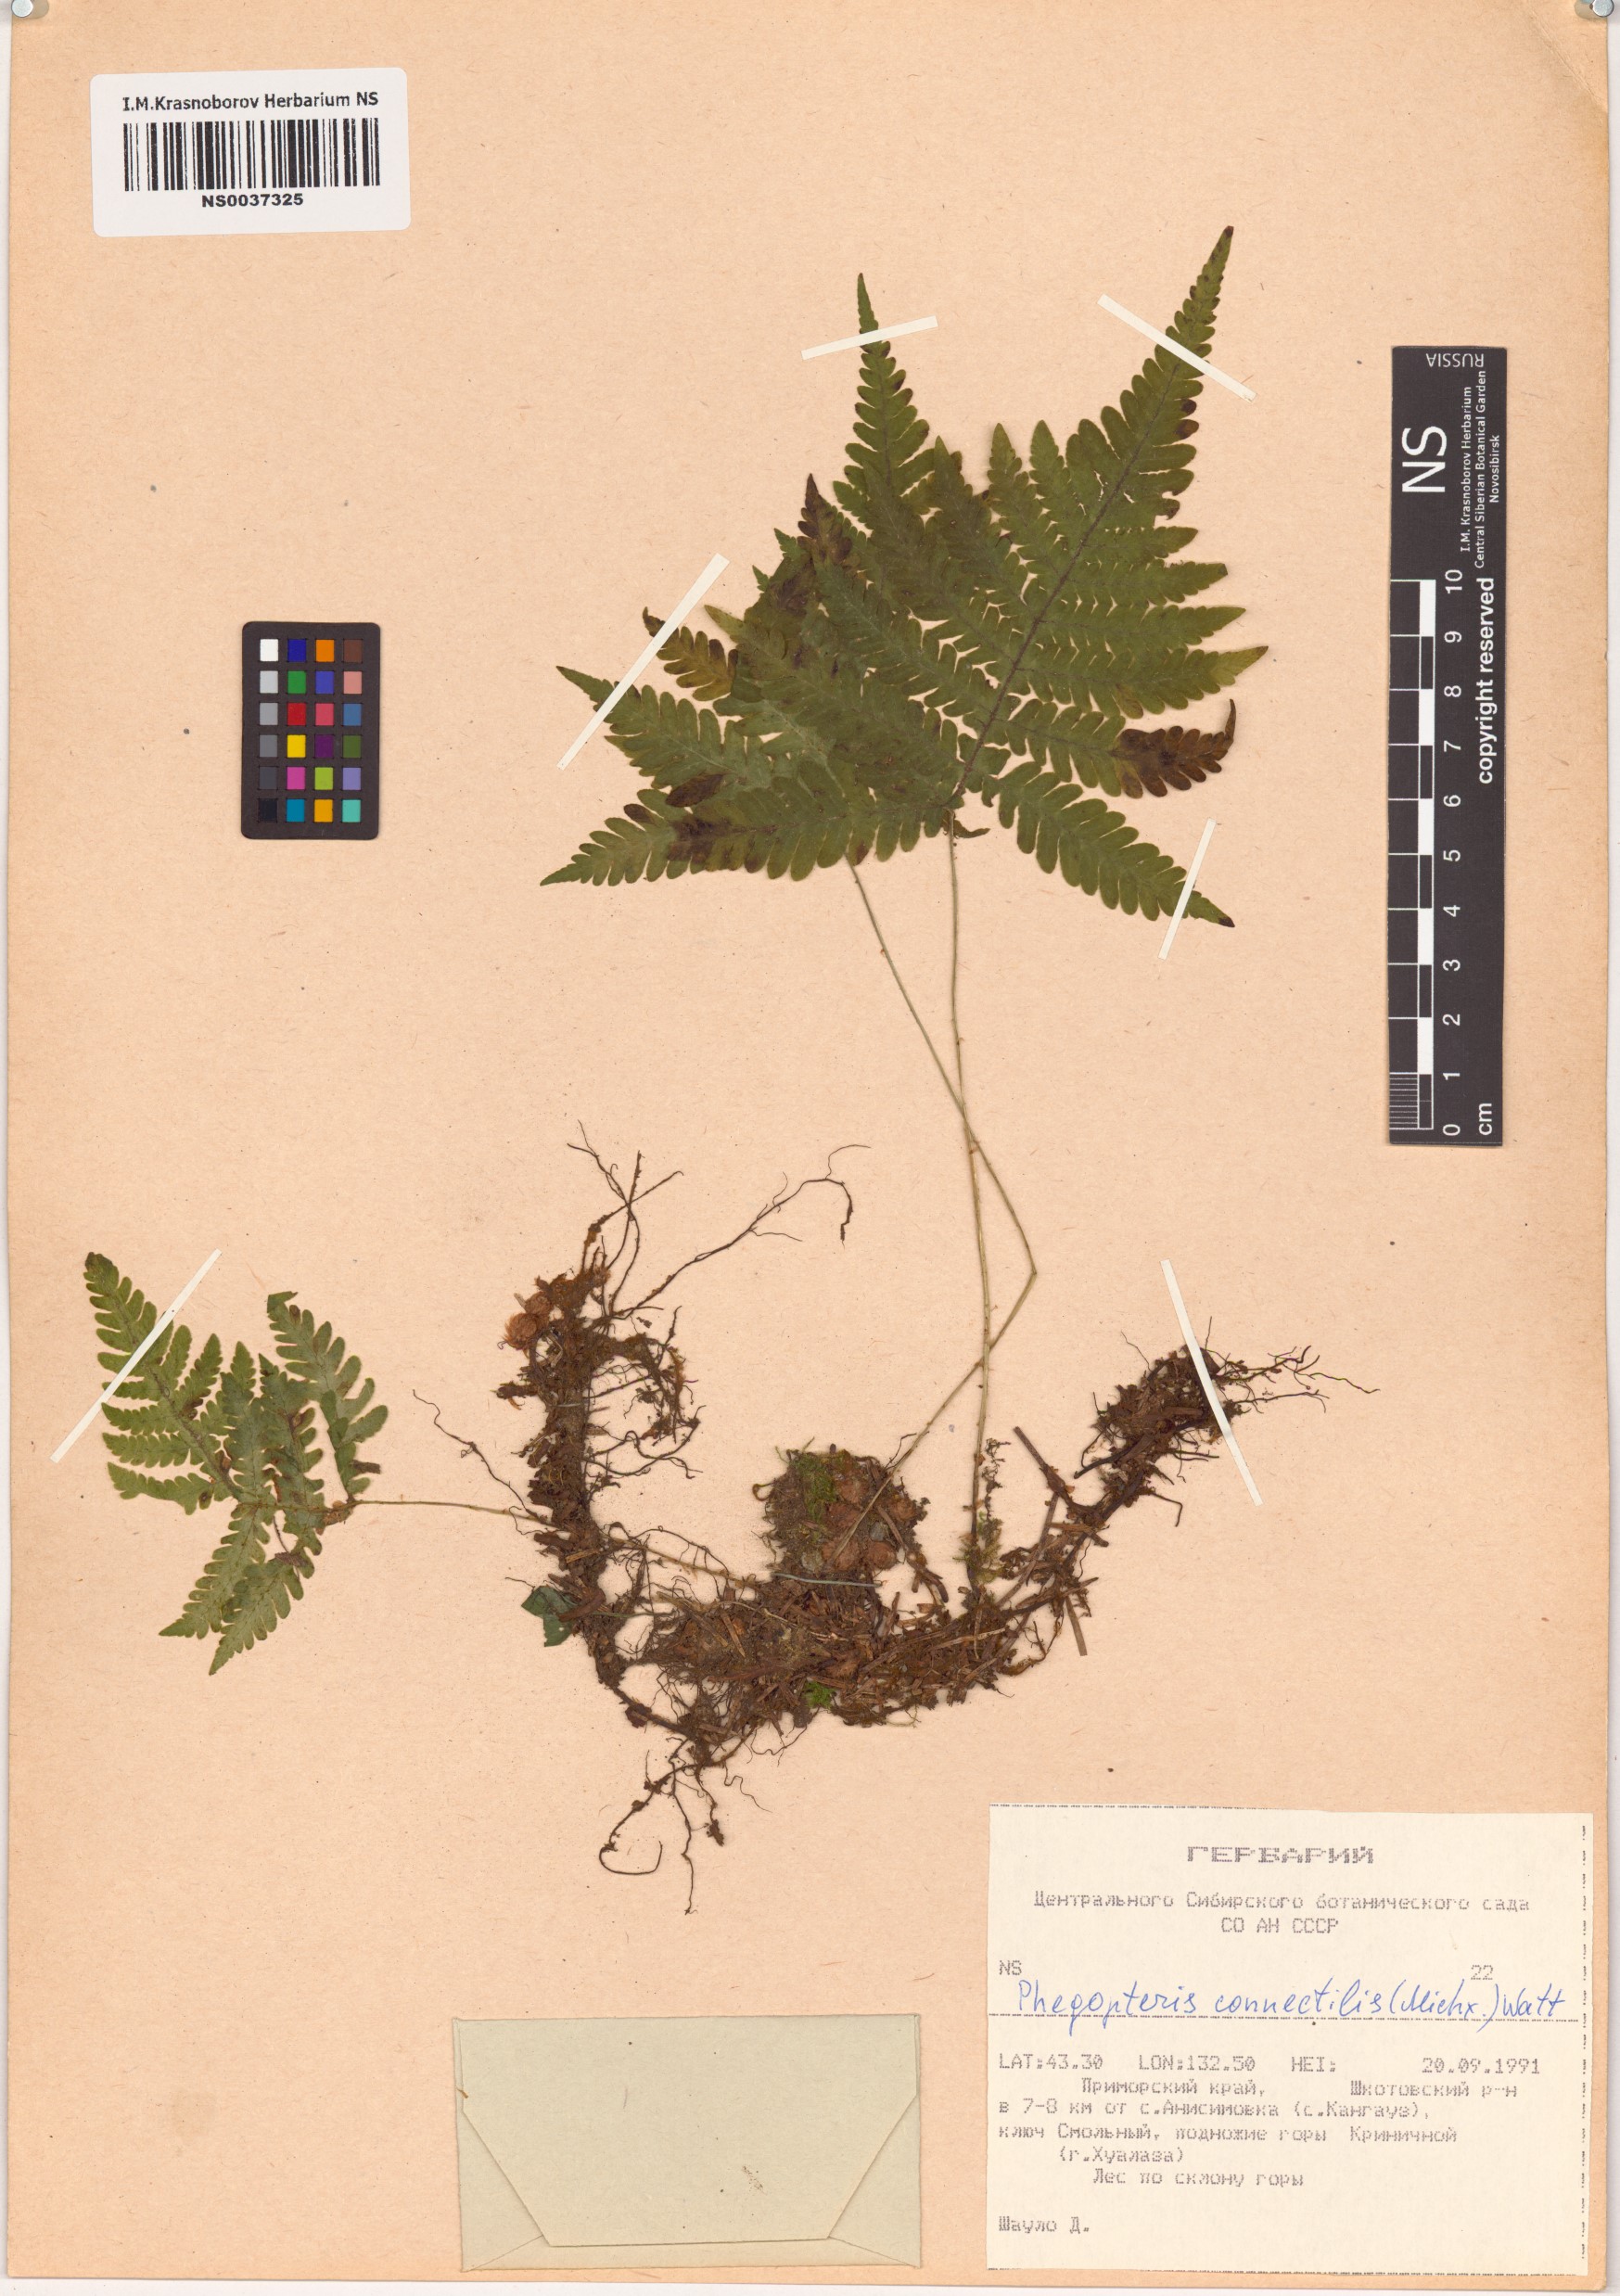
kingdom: Plantae
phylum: Tracheophyta
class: Polypodiopsida
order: Polypodiales
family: Thelypteridaceae
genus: Phegopteris
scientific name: Phegopteris connectilis
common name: Beech fern
